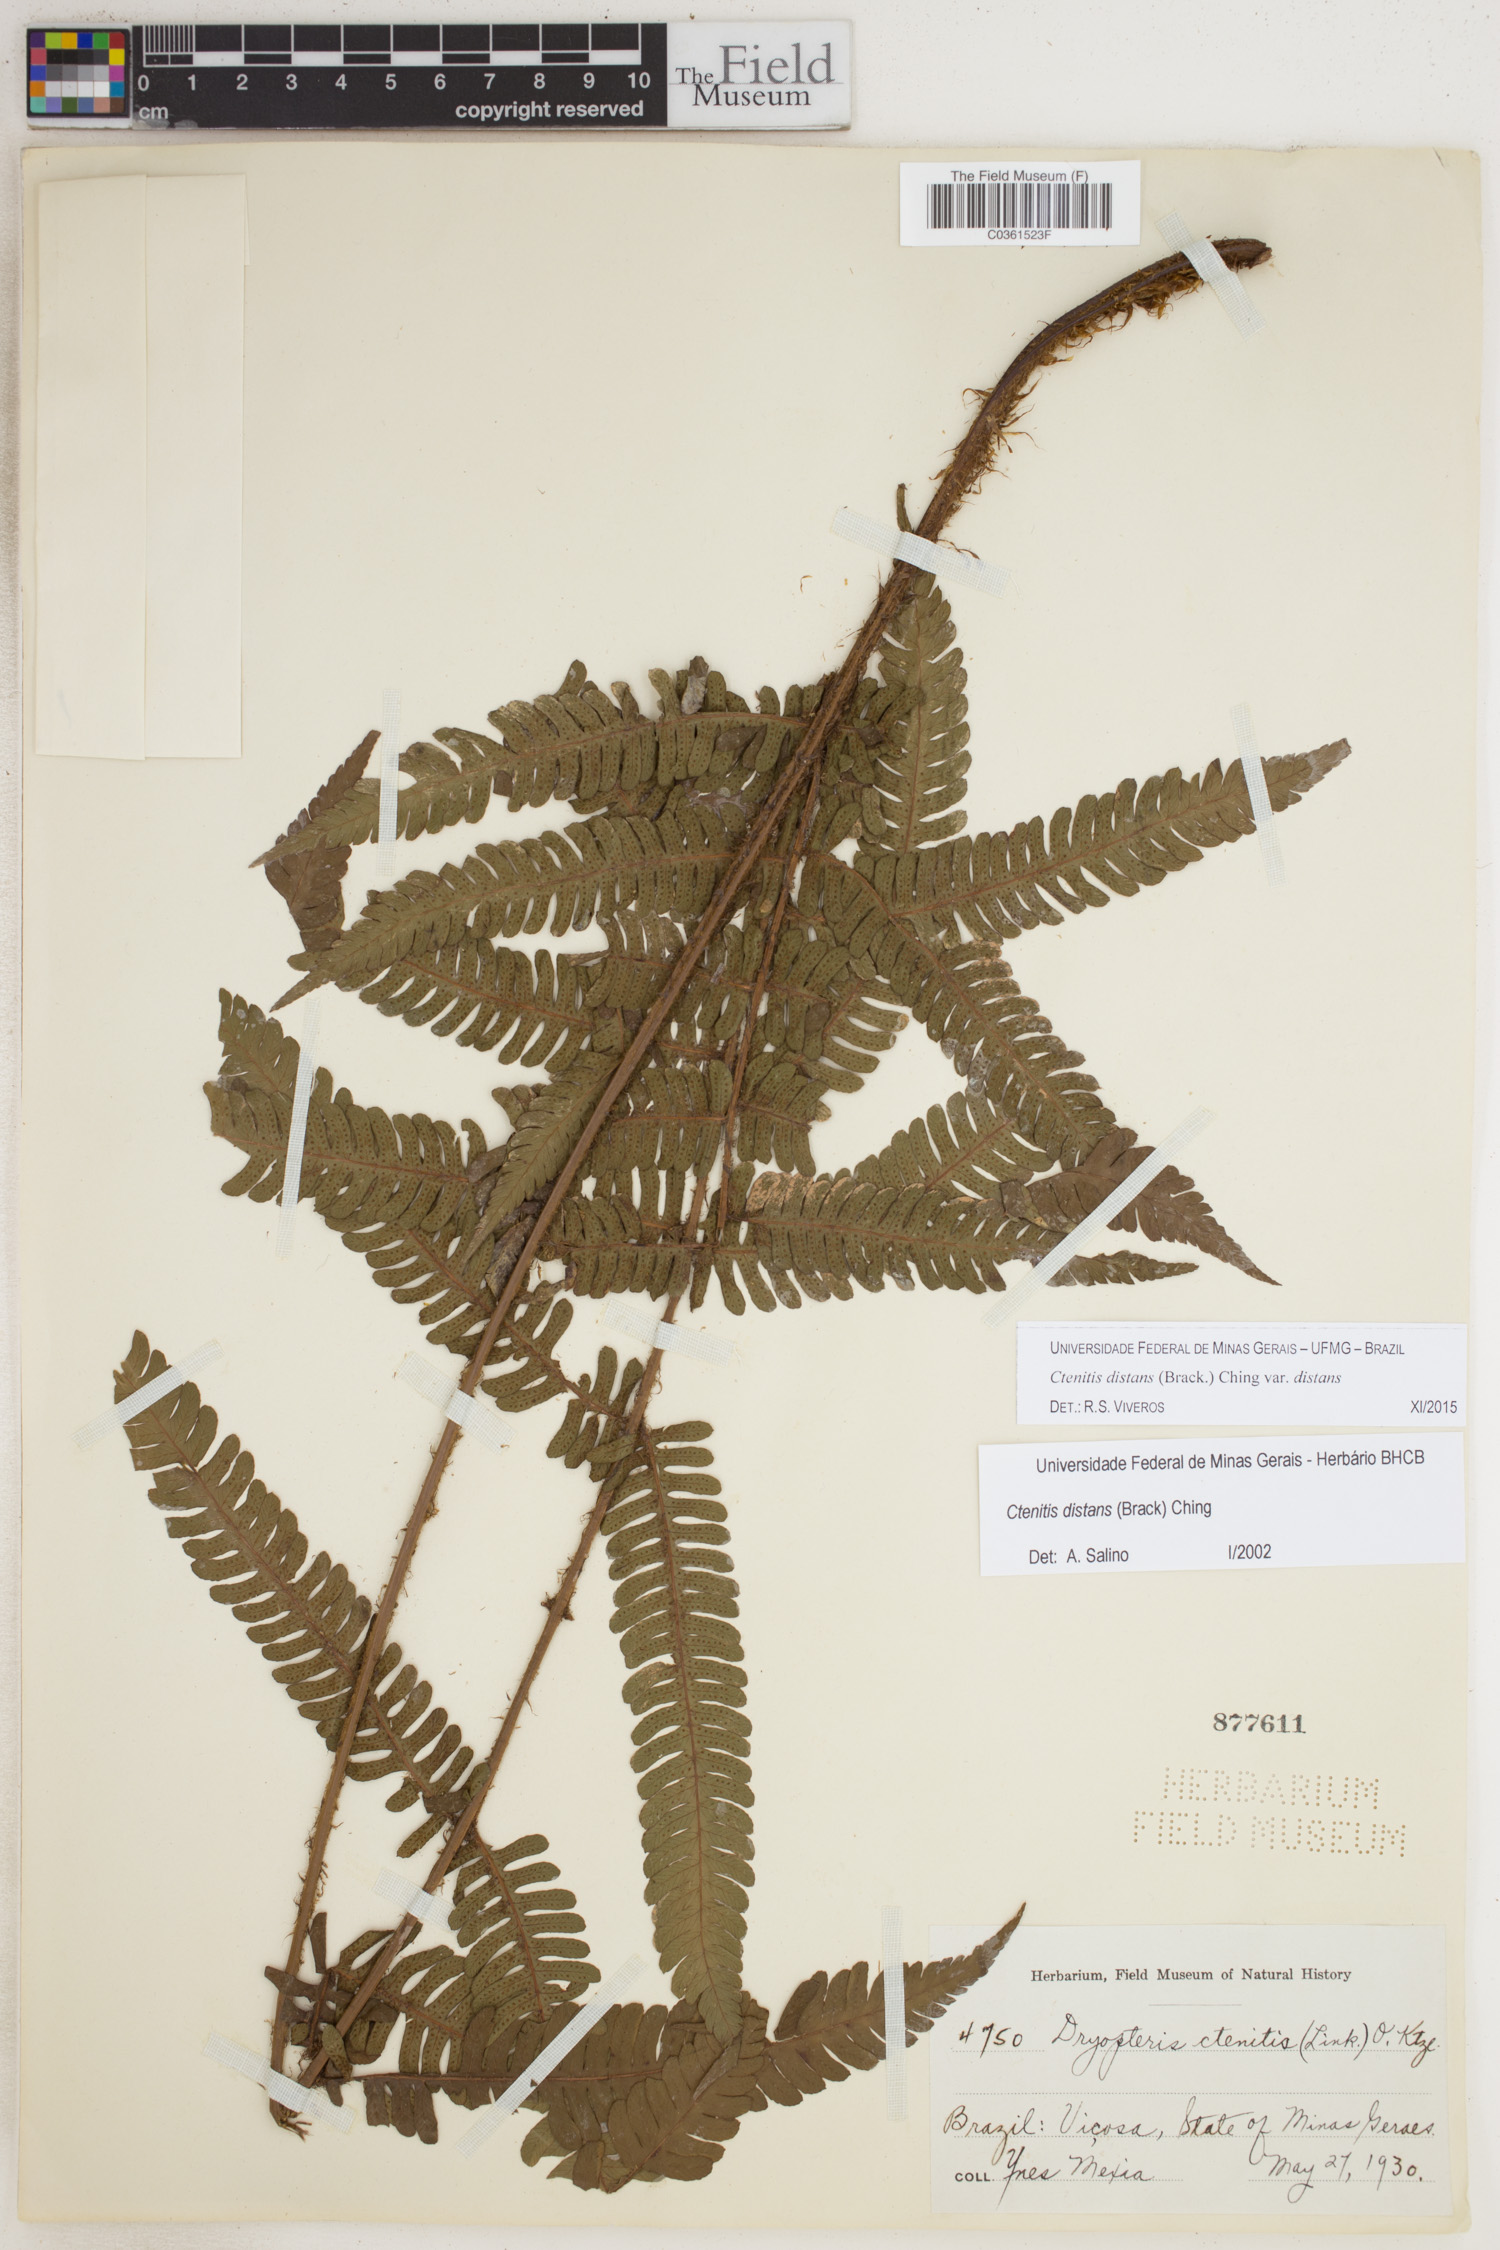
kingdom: Plantae
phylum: Tracheophyta
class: Polypodiopsida
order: Polypodiales
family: Dryopteridaceae
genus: Ctenitis
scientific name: Ctenitis distans
